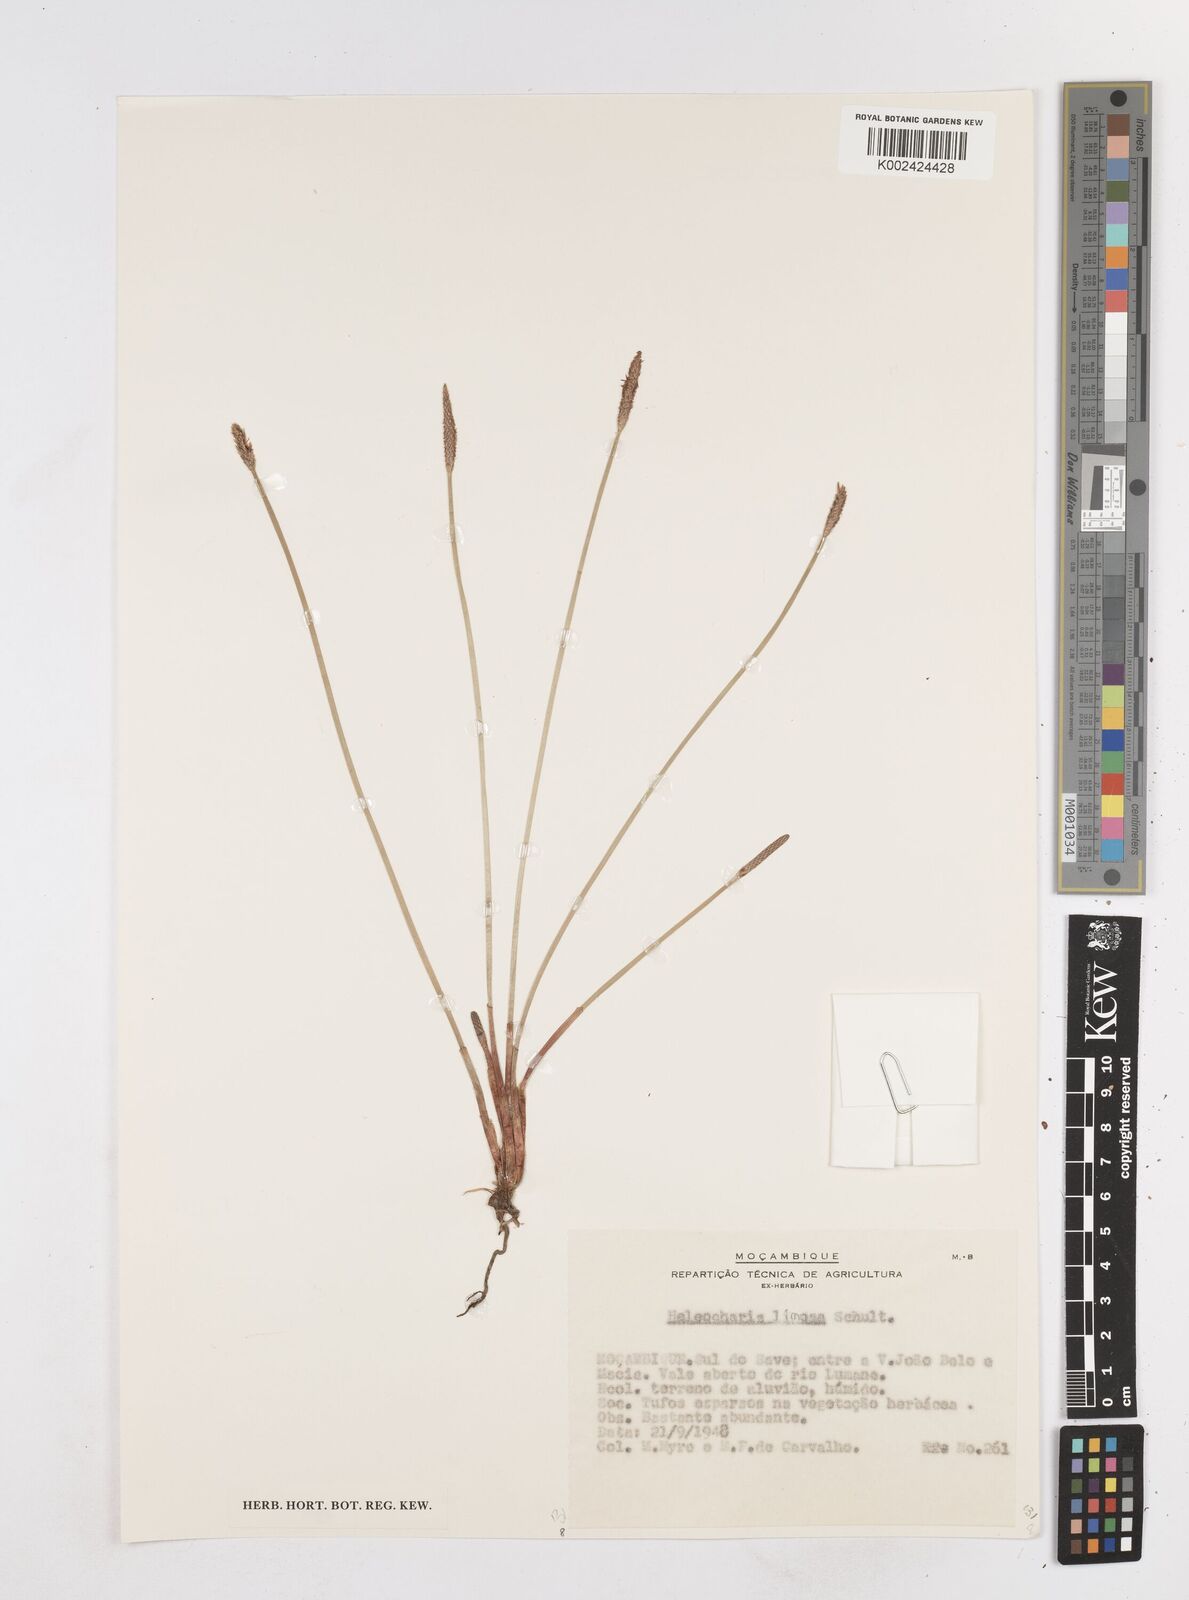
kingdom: Plantae
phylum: Tracheophyta
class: Liliopsida
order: Poales
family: Cyperaceae
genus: Eleocharis
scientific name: Eleocharis limosa
